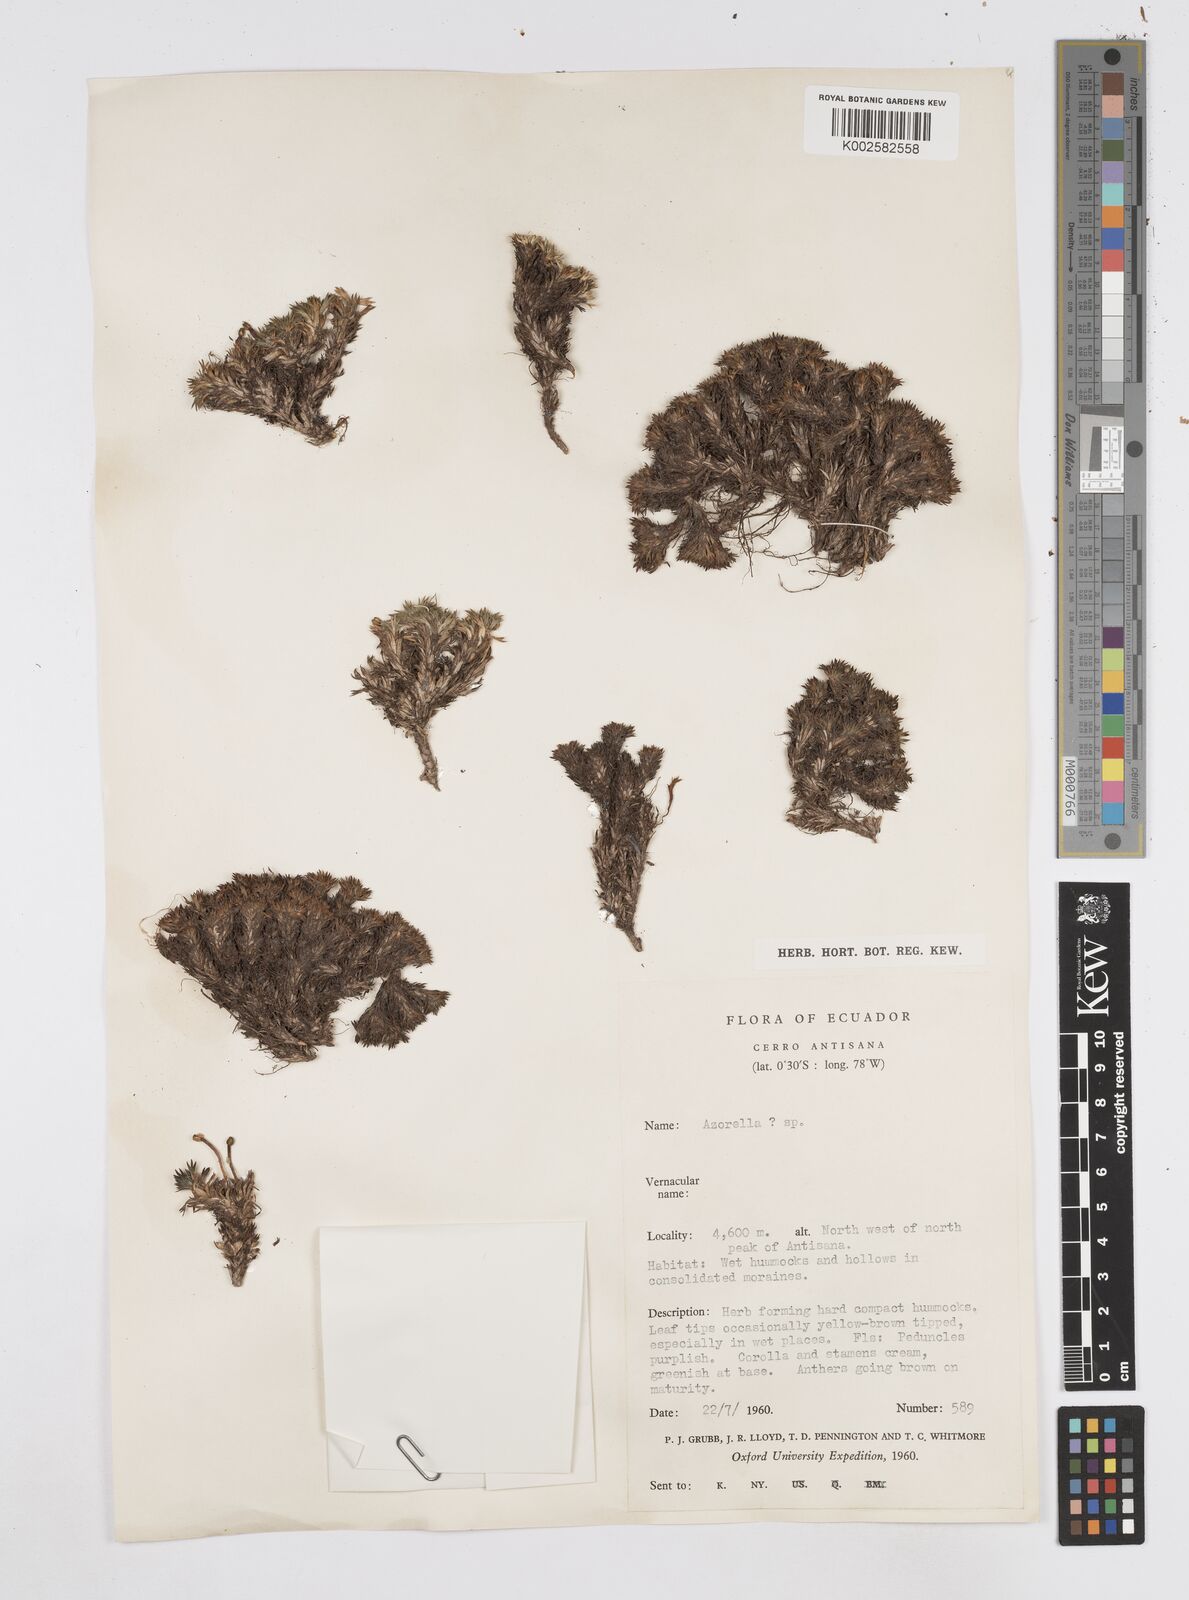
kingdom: Plantae
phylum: Tracheophyta
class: Magnoliopsida
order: Apiales
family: Apiaceae
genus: Azorella
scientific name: Azorella
